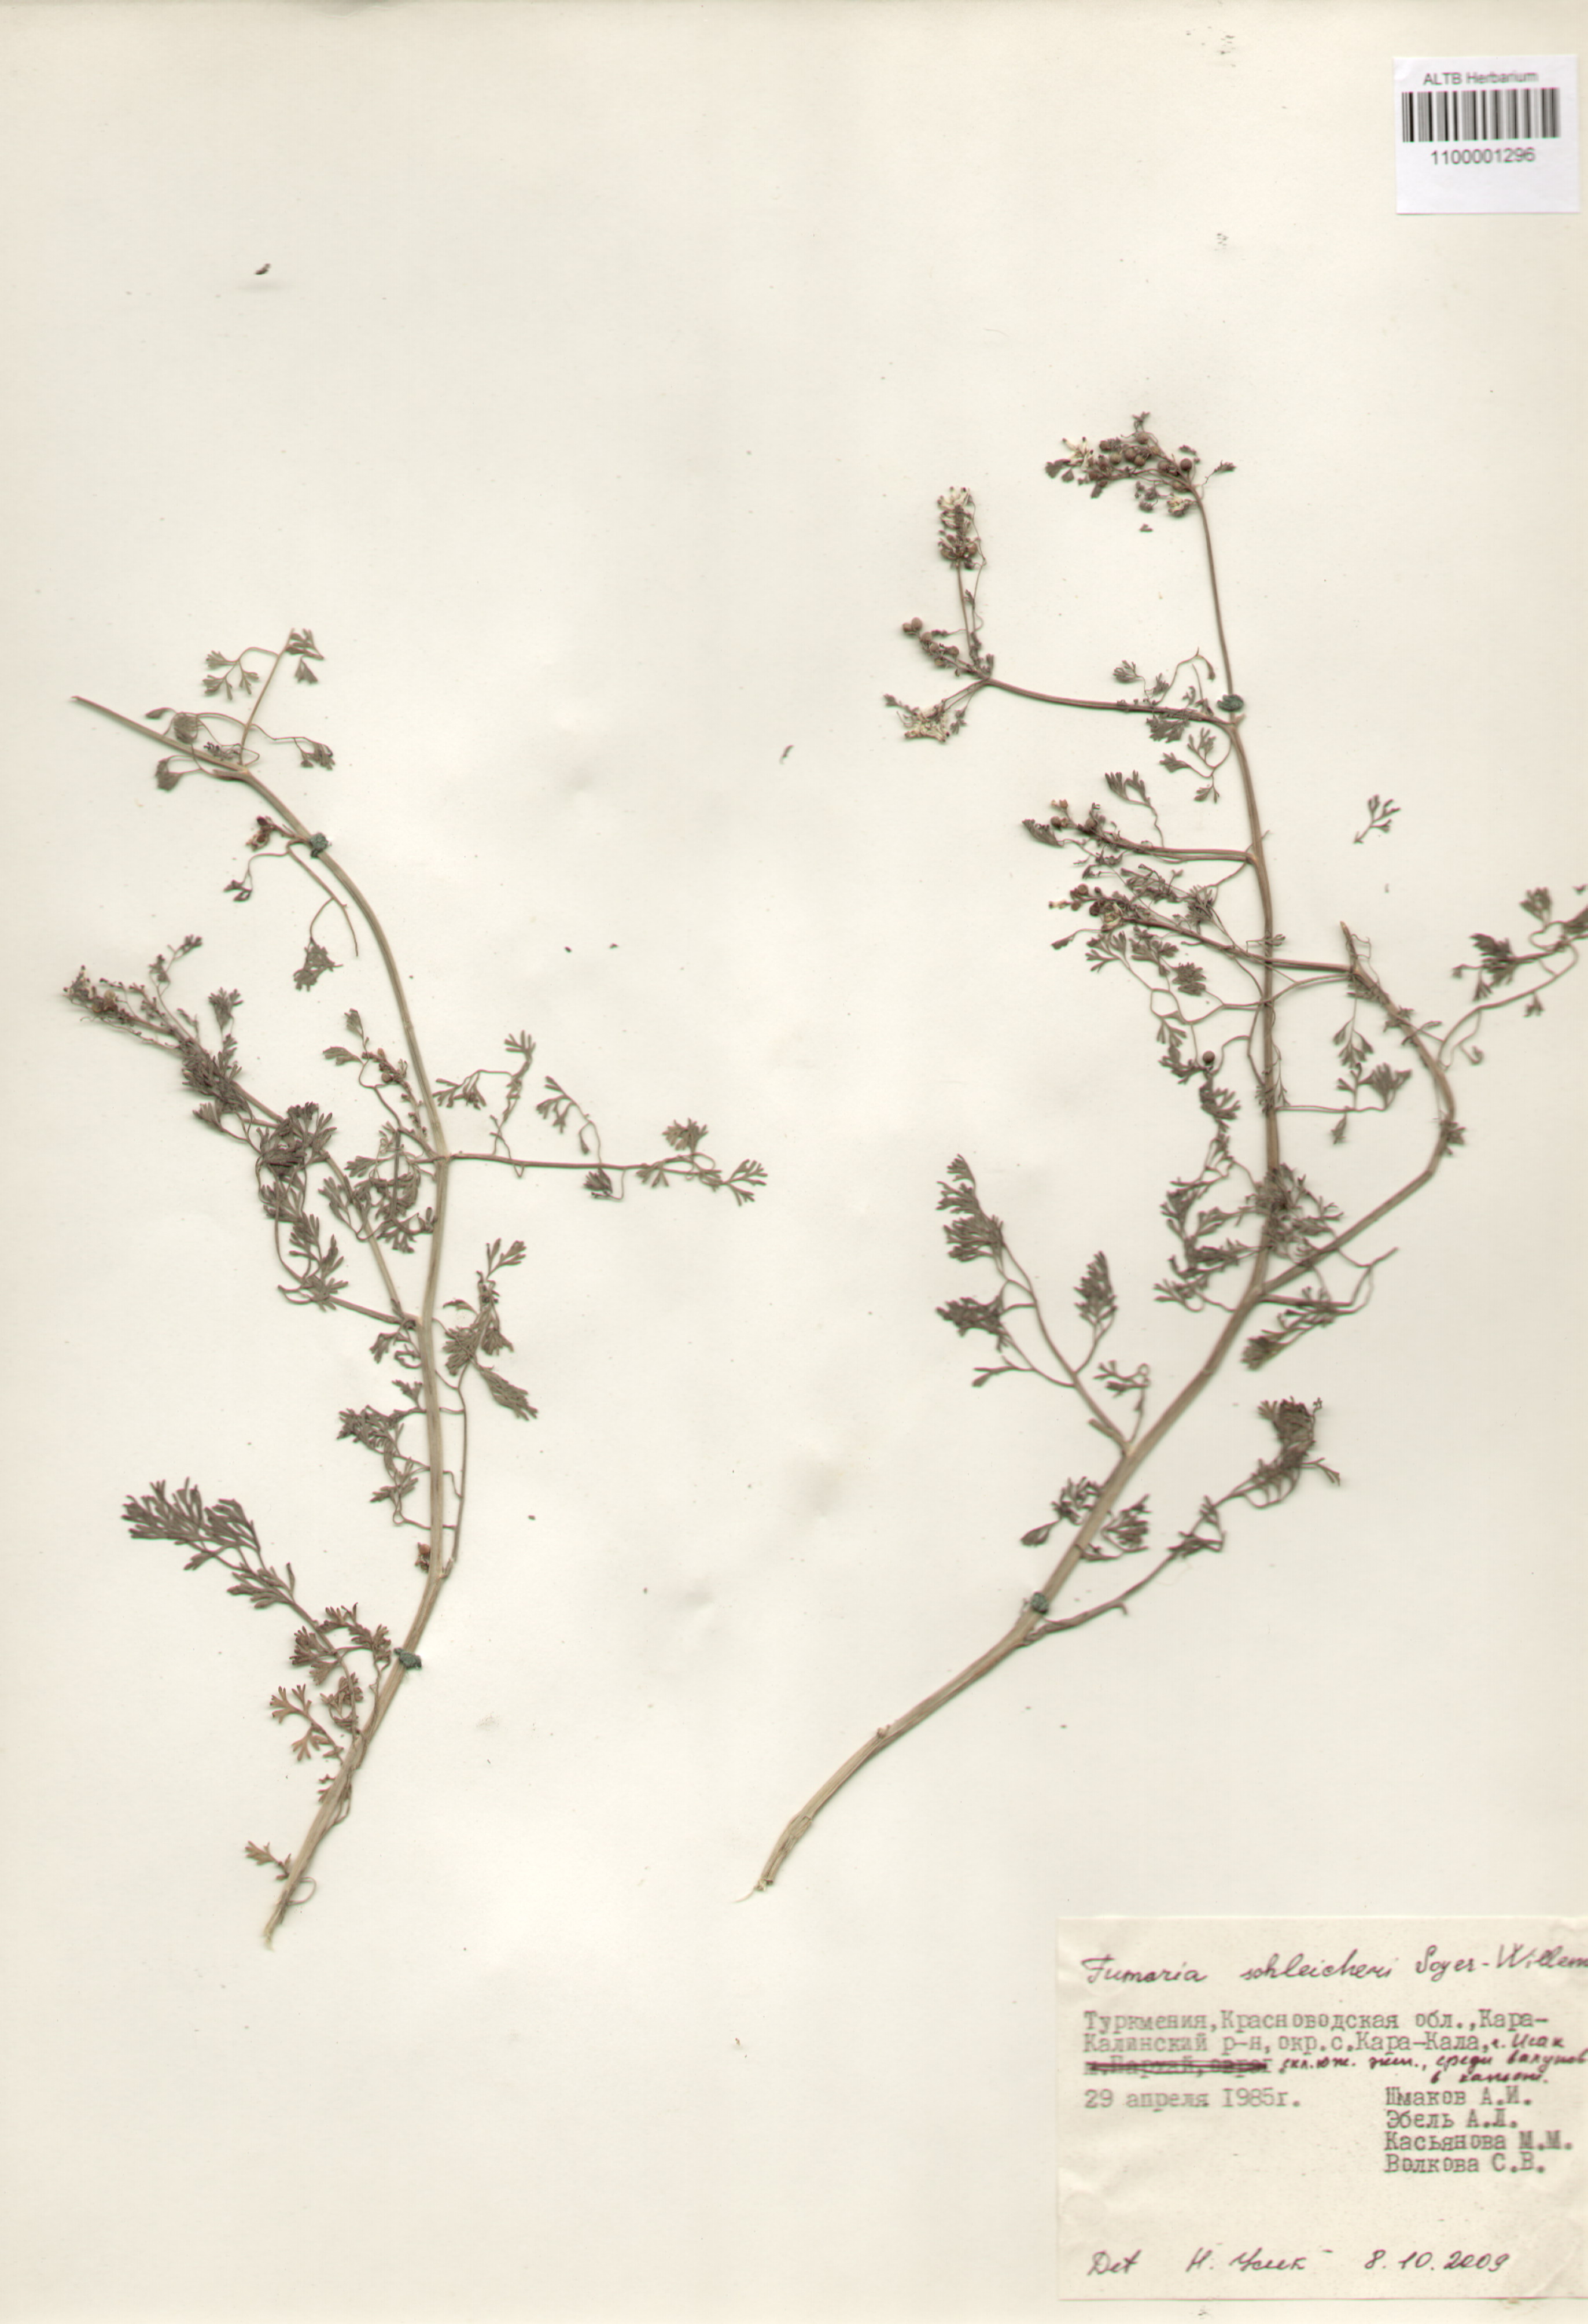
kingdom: Plantae
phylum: Tracheophyta
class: Magnoliopsida
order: Ranunculales
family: Papaveraceae
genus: Fumaria
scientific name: Fumaria schleicheri
